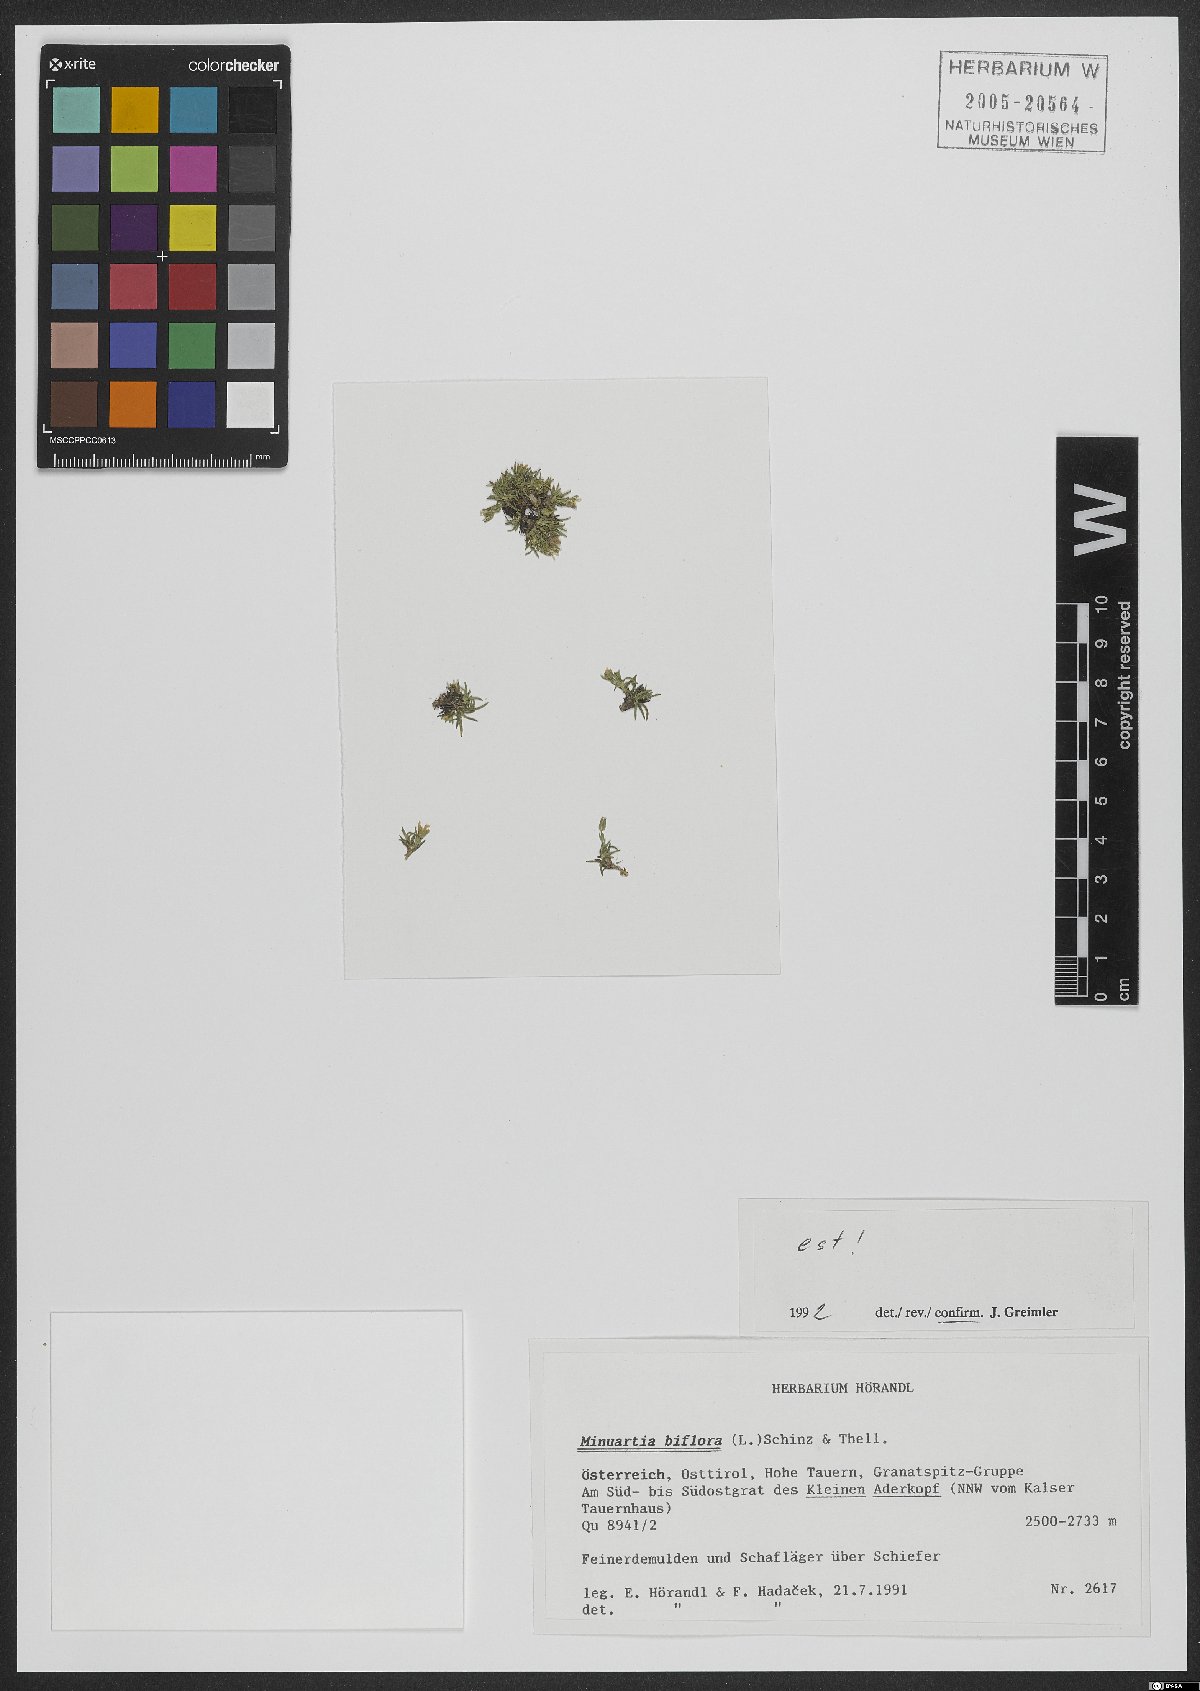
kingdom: Plantae
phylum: Tracheophyta
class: Magnoliopsida
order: Caryophyllales
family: Caryophyllaceae
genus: Cherleria
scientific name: Cherleria biflora
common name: Mountain sandwort
